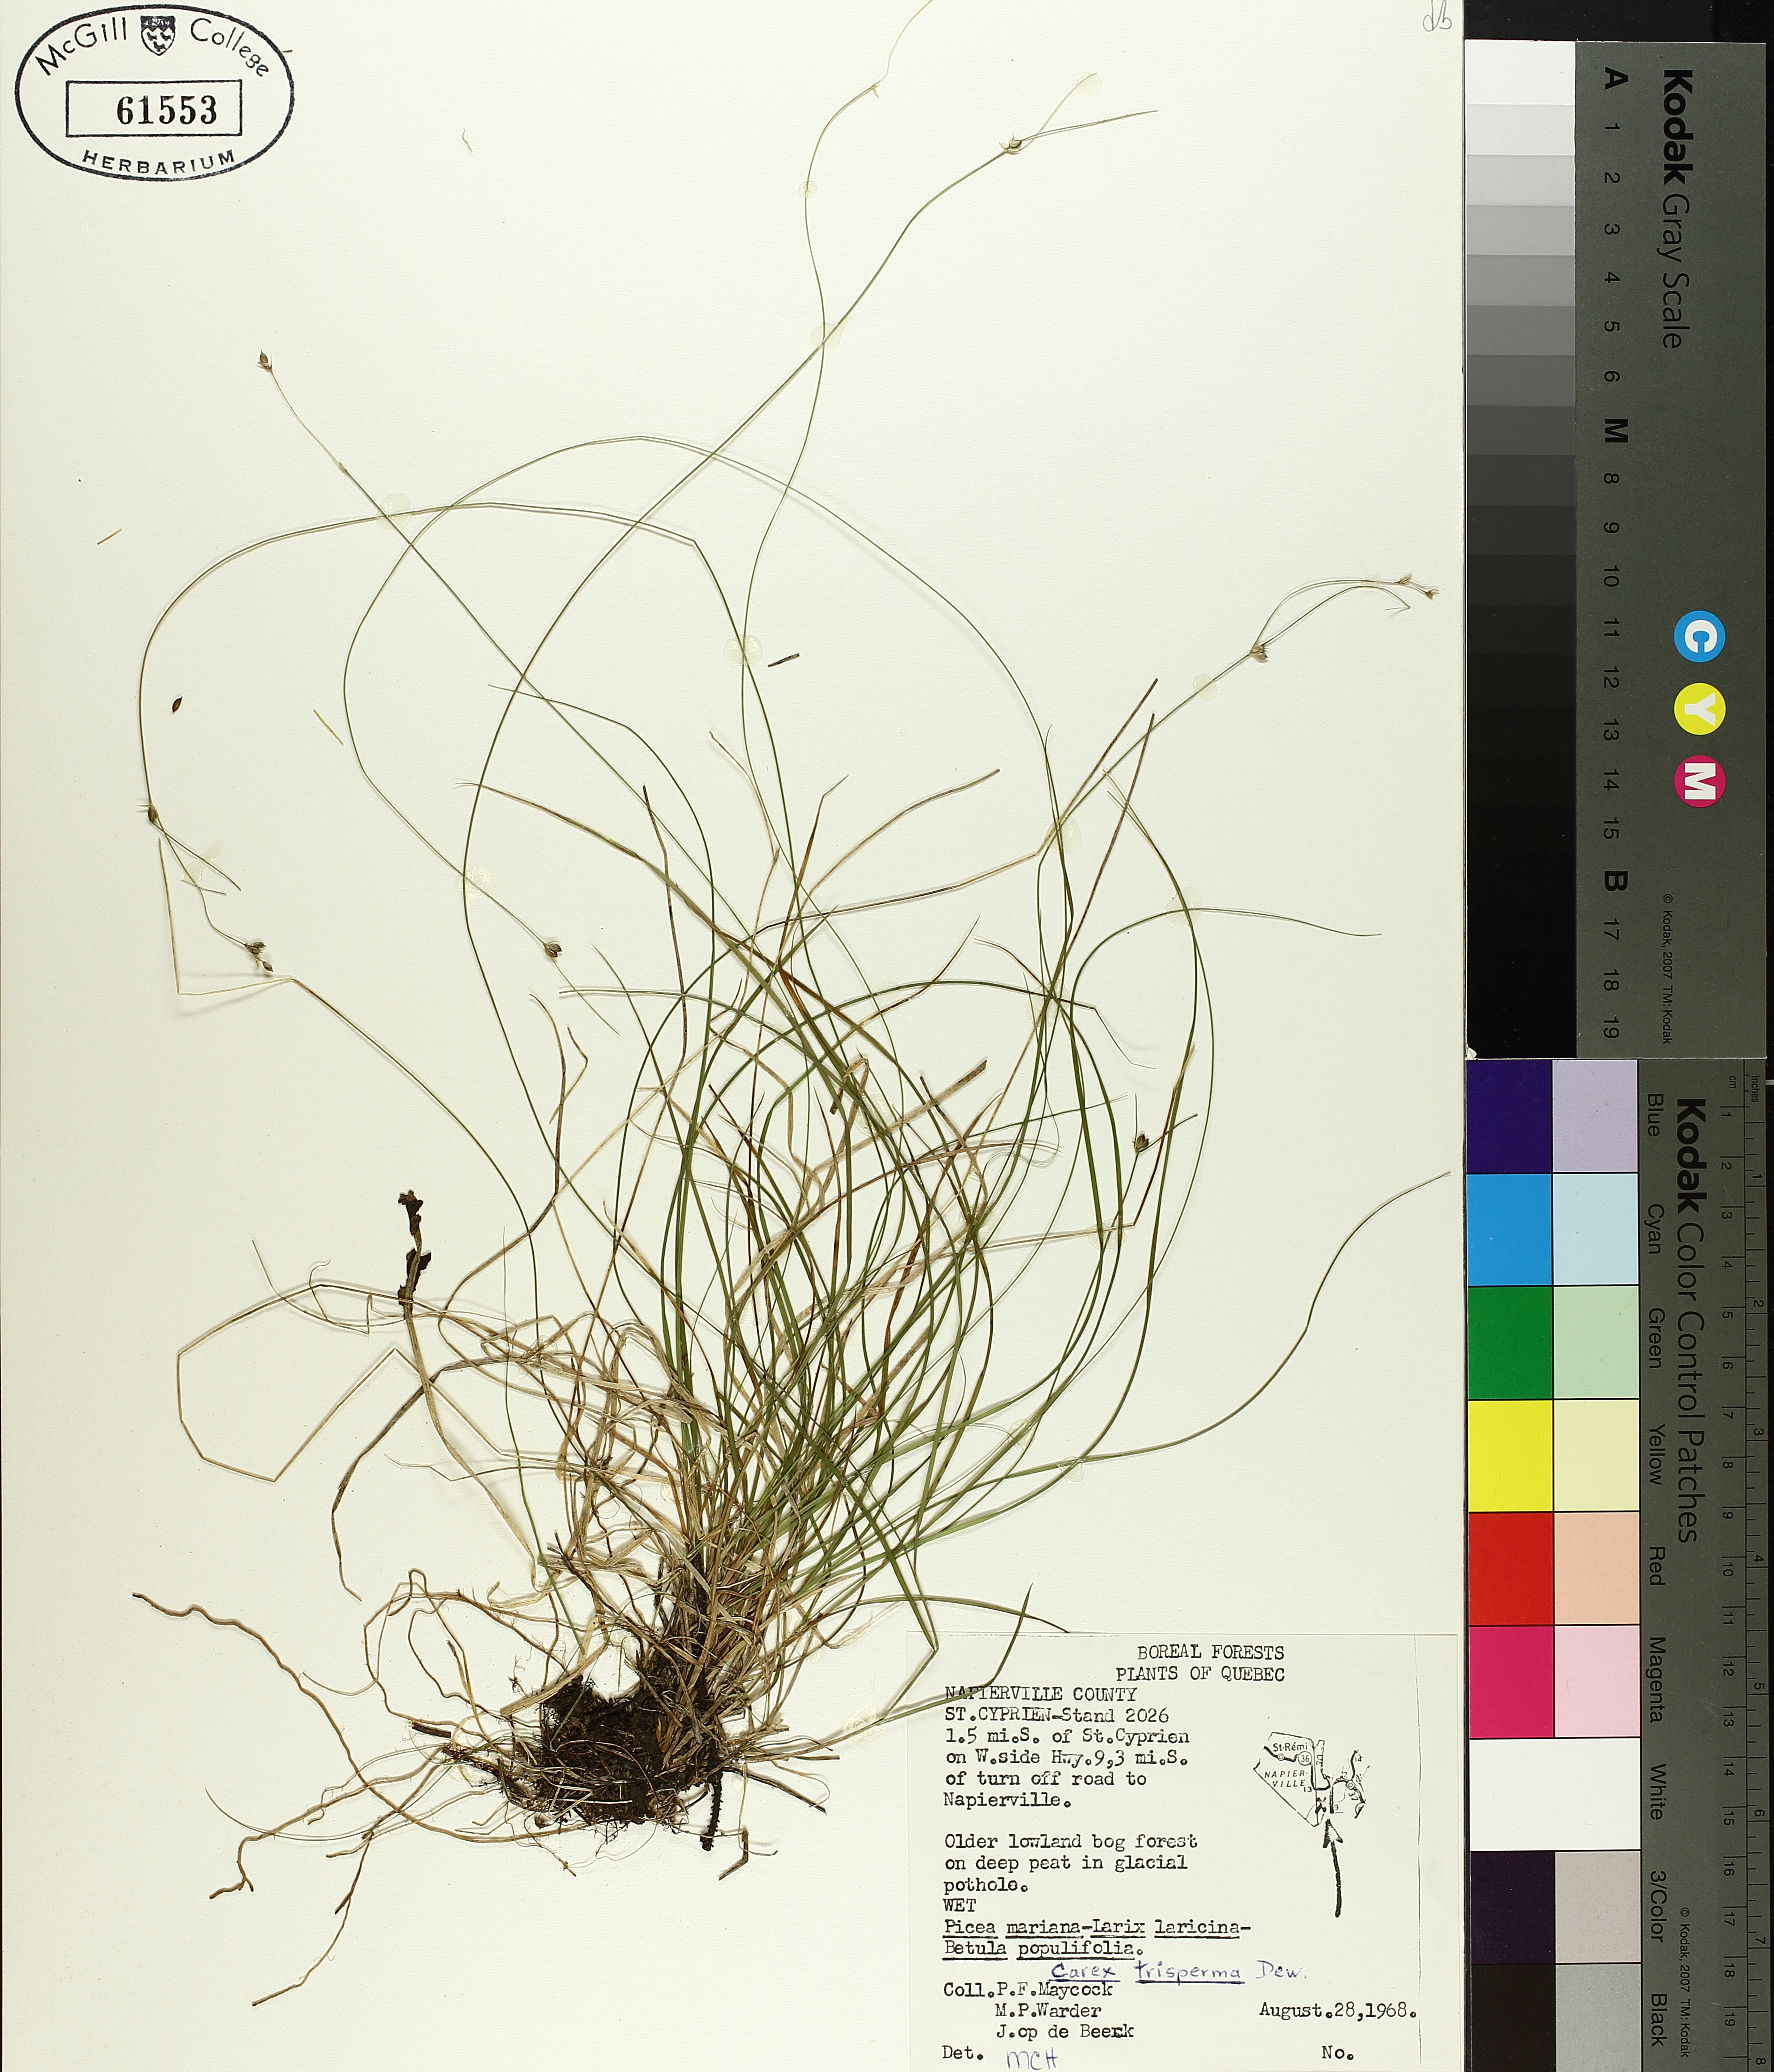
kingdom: Plantae
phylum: Tracheophyta
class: Liliopsida
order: Poales
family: Cyperaceae
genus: Carex
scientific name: Carex trisperma
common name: Three-seeded sedge
